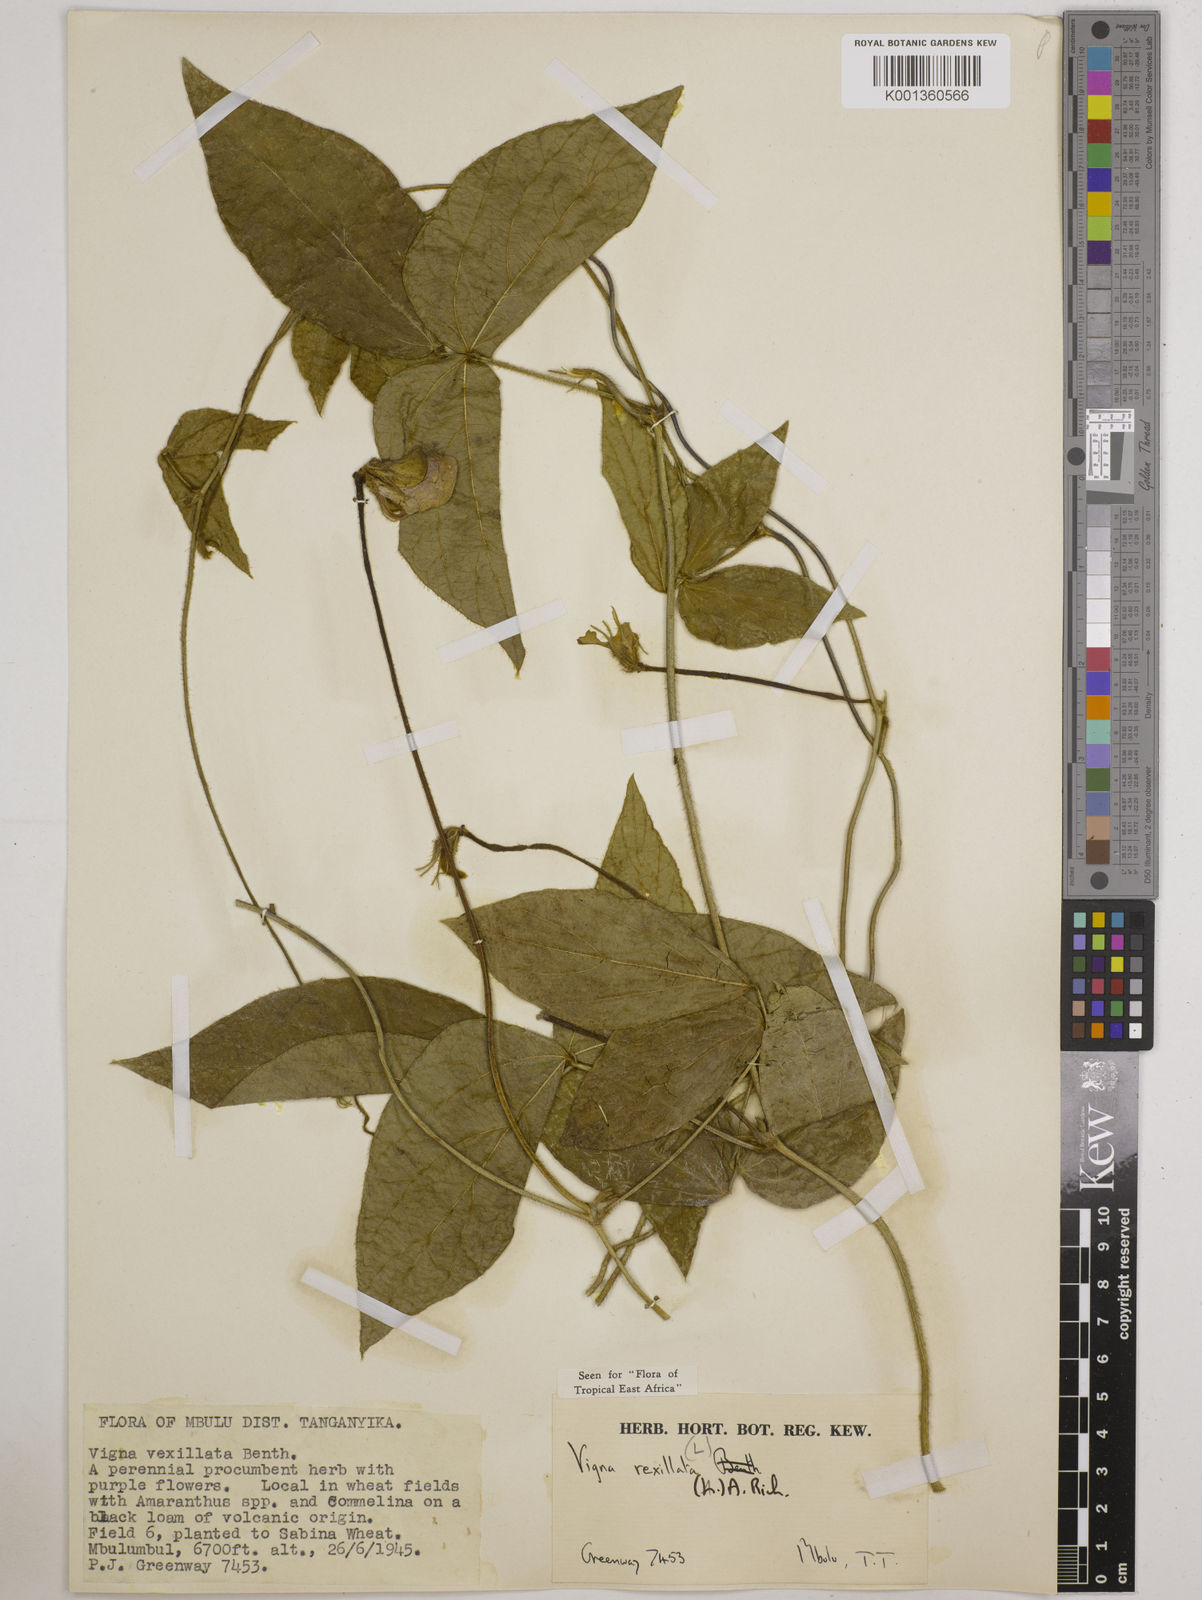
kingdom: Plantae
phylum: Tracheophyta
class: Magnoliopsida
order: Fabales
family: Fabaceae
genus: Vigna
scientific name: Vigna vexillata
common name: Zombi pea
